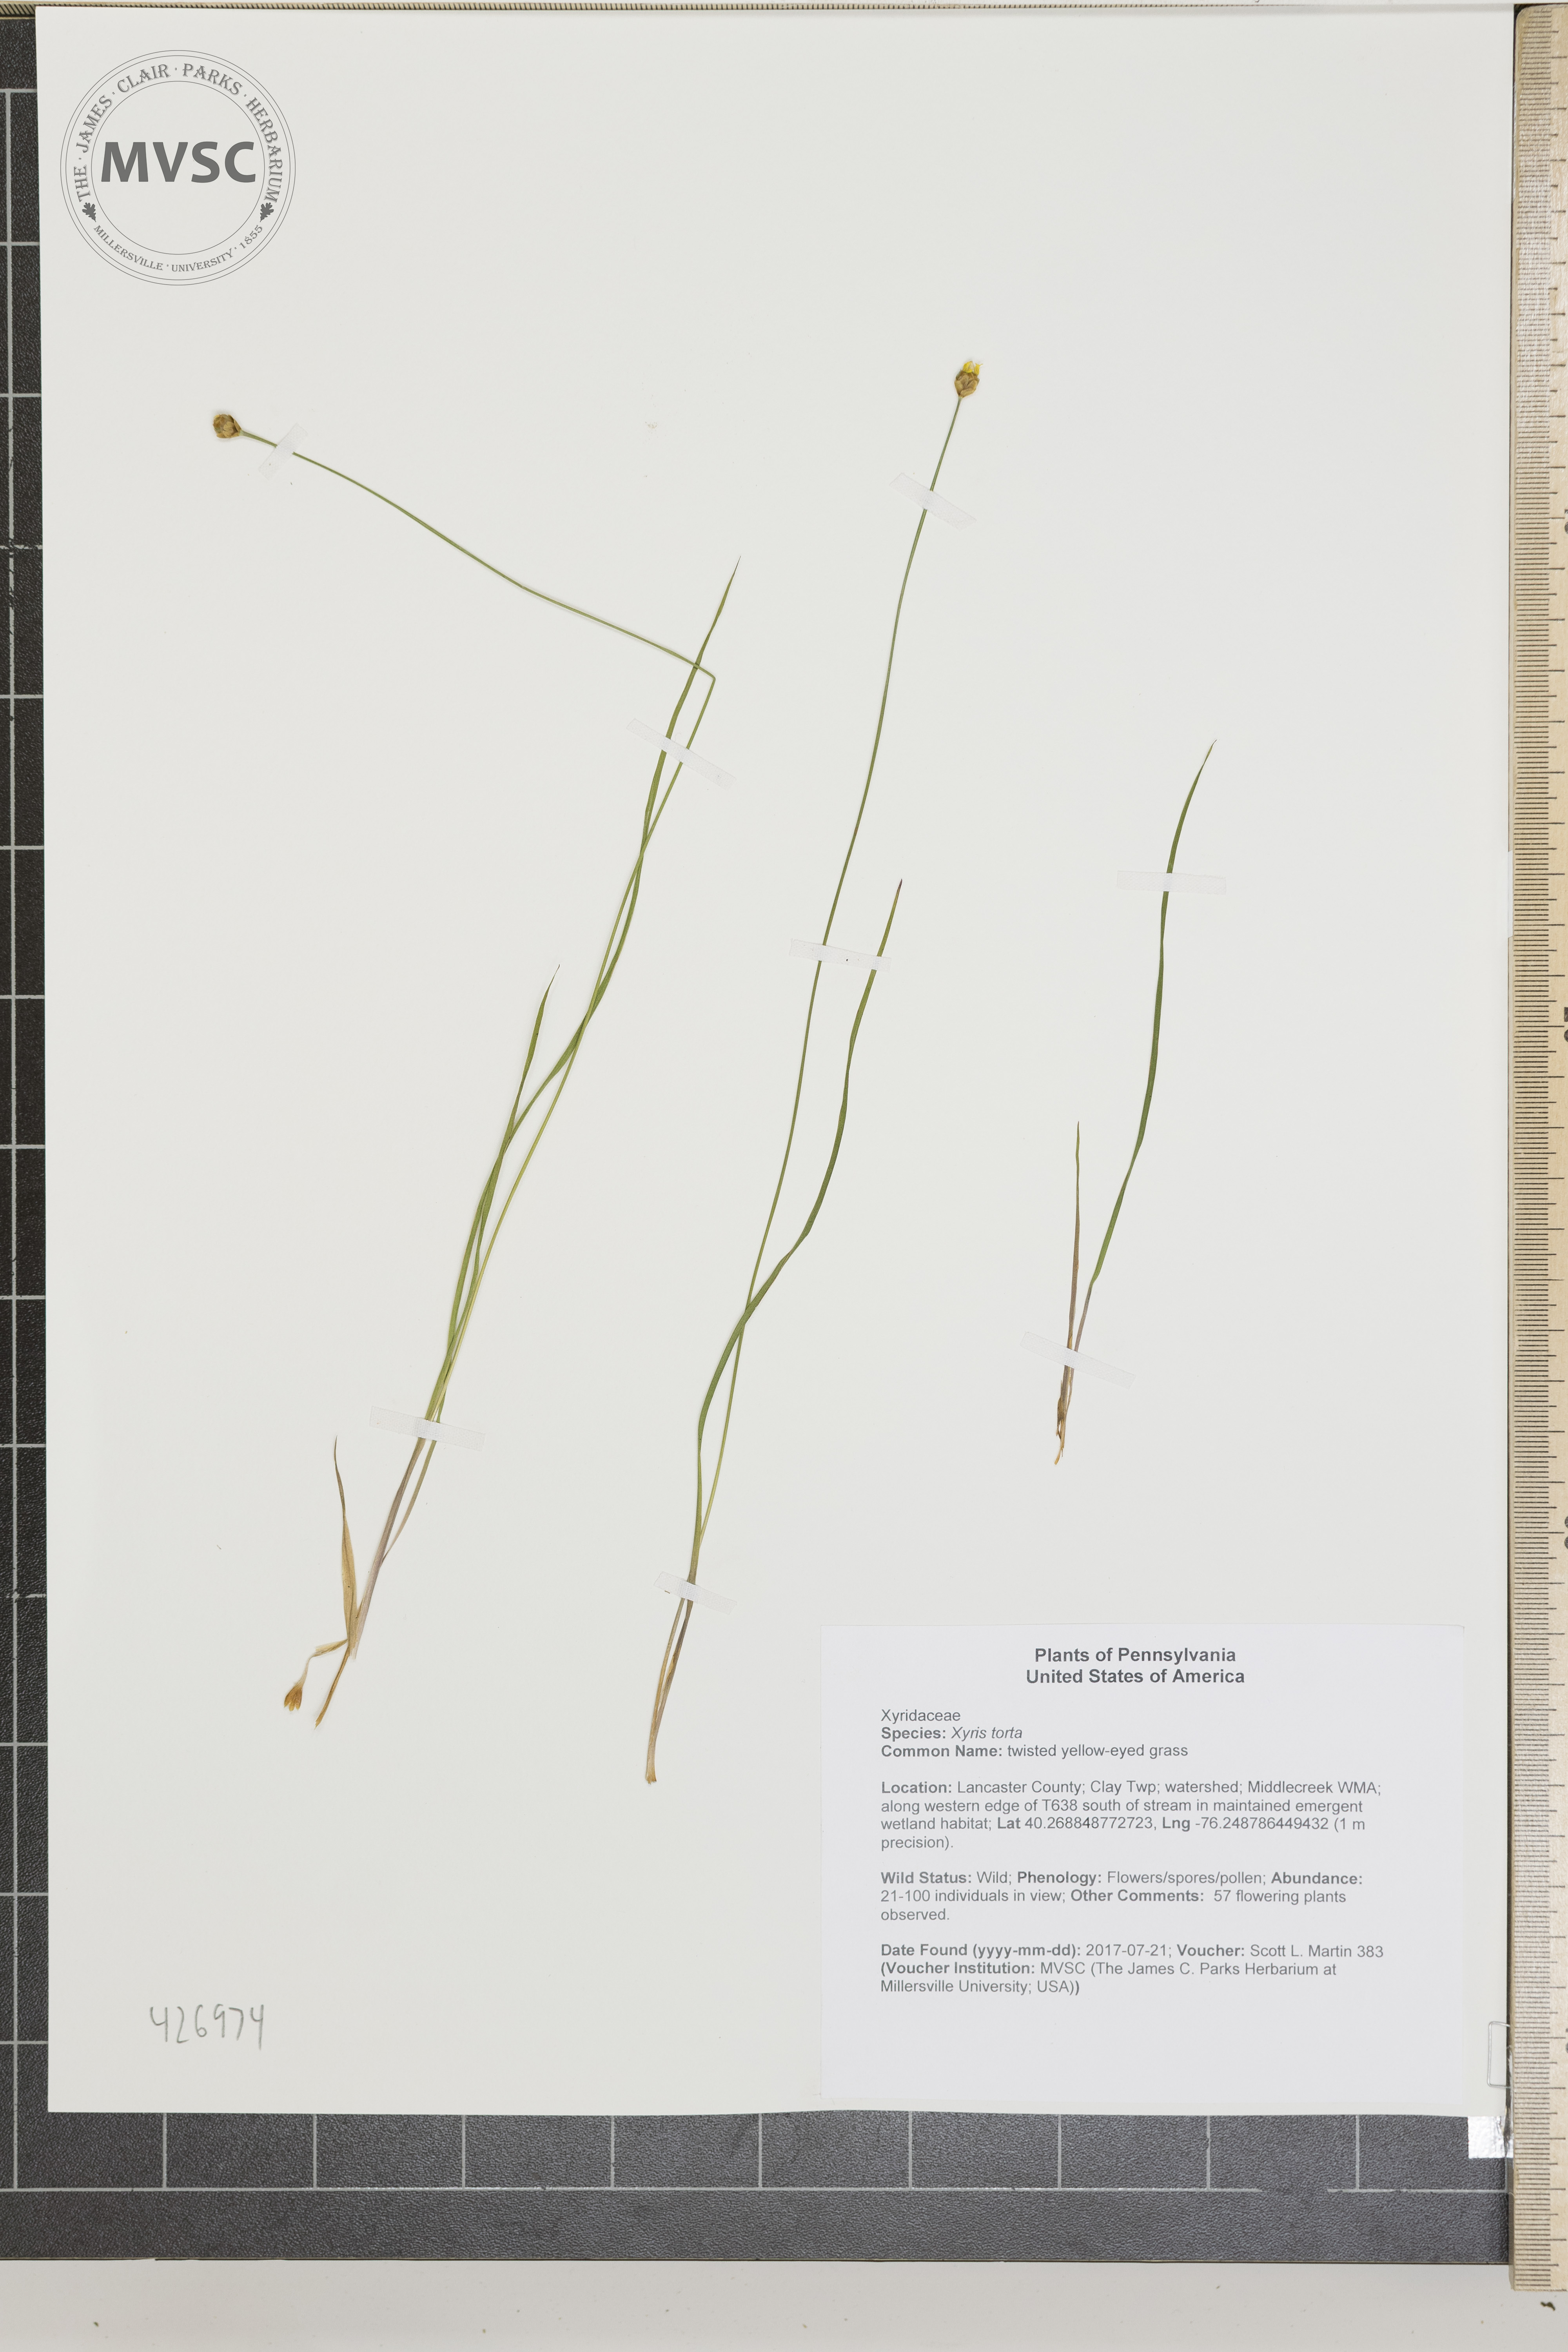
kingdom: Plantae
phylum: Tracheophyta
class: Liliopsida
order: Poales
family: Xyridaceae
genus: Xyris
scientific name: Xyris torta
